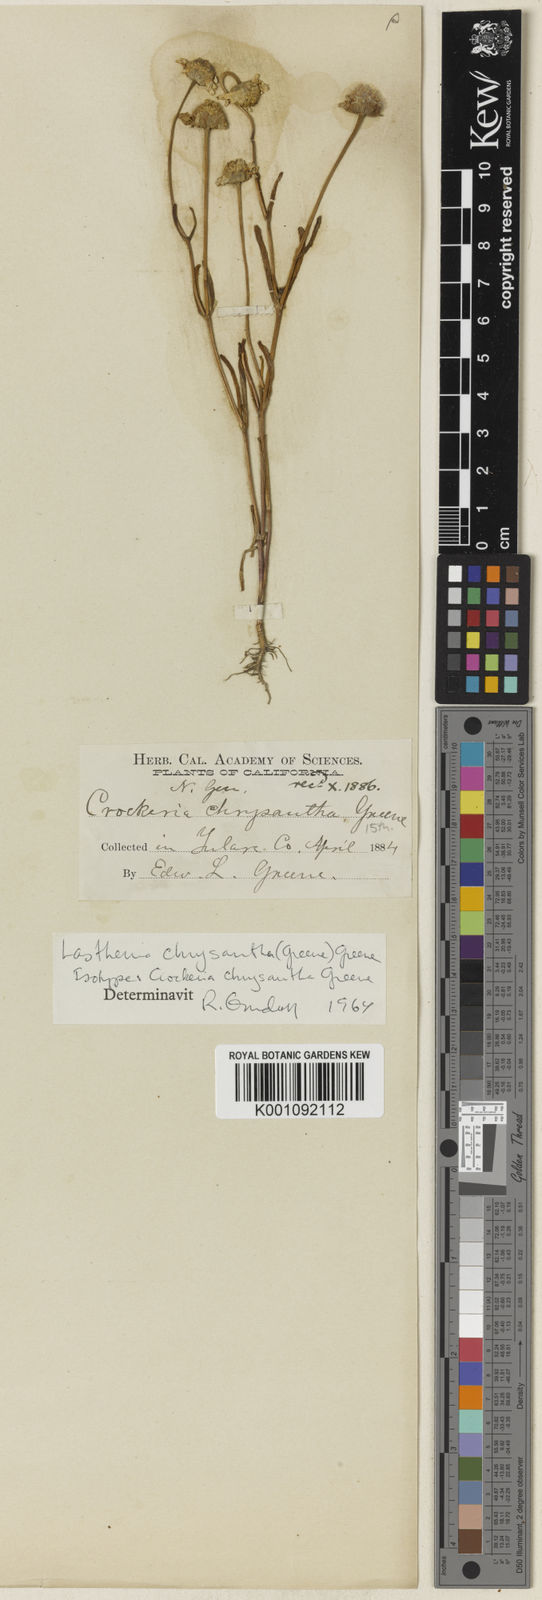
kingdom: Plantae
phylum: Tracheophyta
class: Magnoliopsida
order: Asterales
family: Asteraceae
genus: Lasthenia
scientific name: Lasthenia chrysantha
